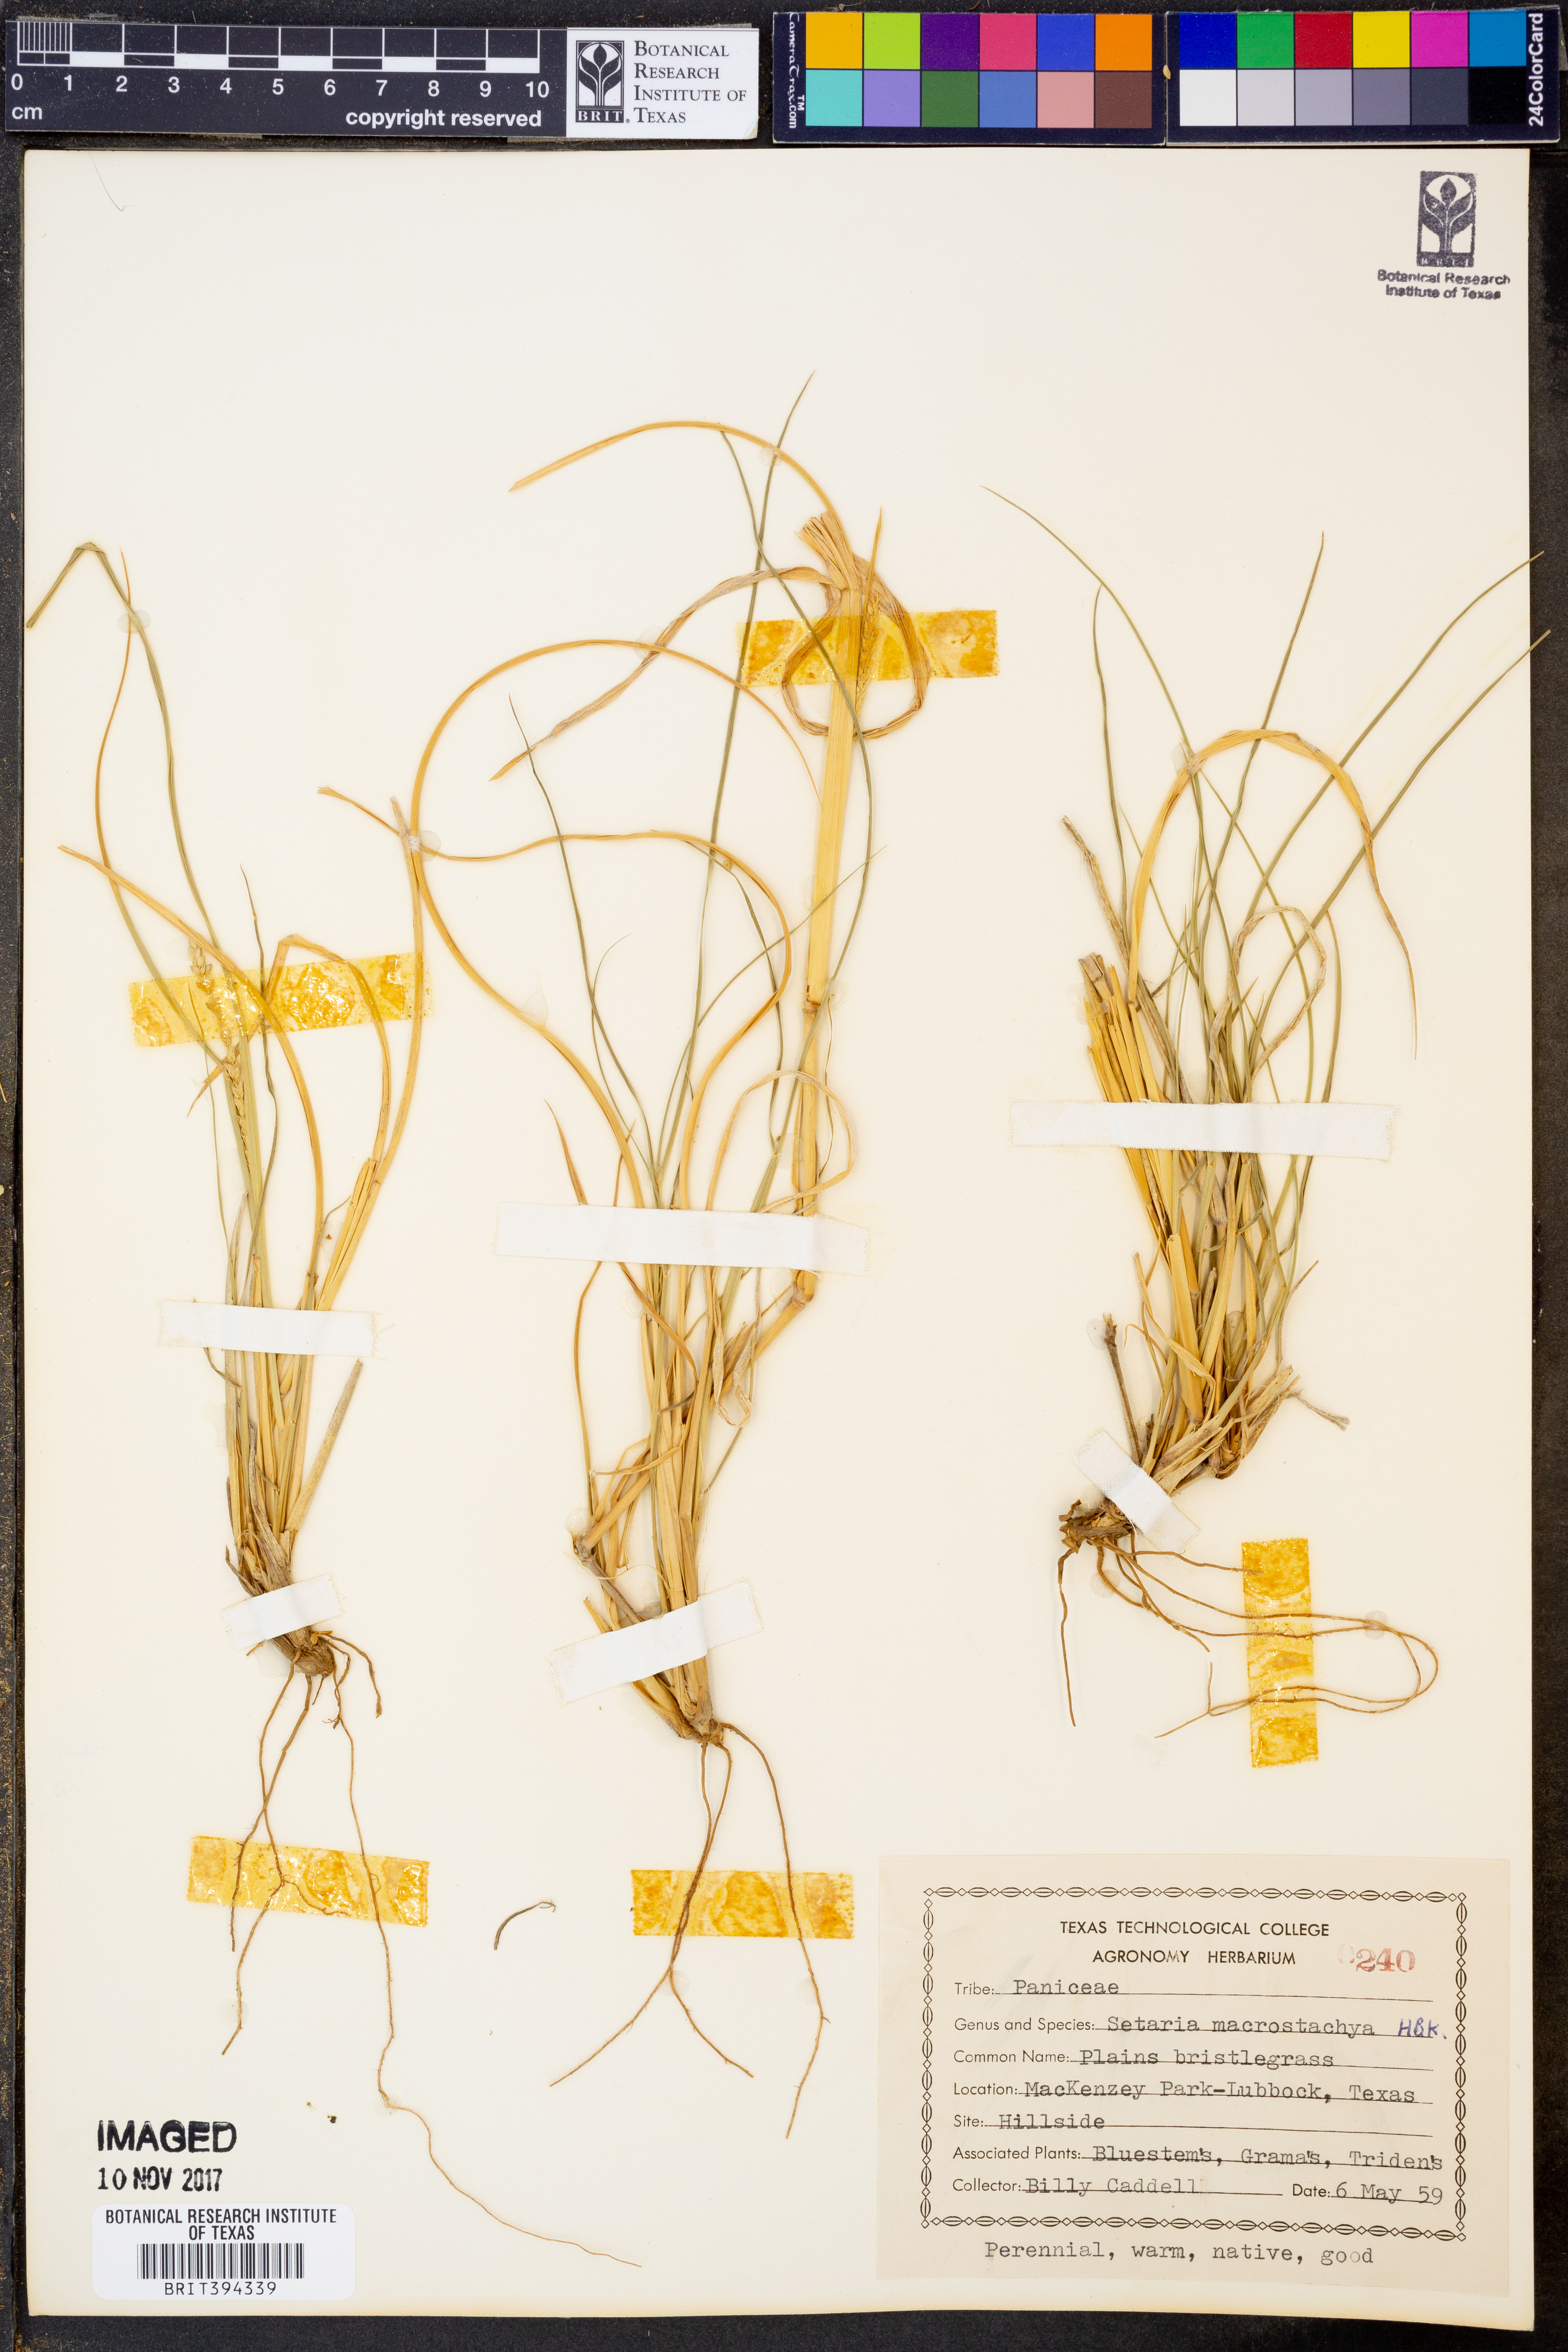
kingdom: Plantae
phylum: Tracheophyta
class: Liliopsida
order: Poales
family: Poaceae
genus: Setaria
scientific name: Setaria macrostachya
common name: Plains bristle grass
